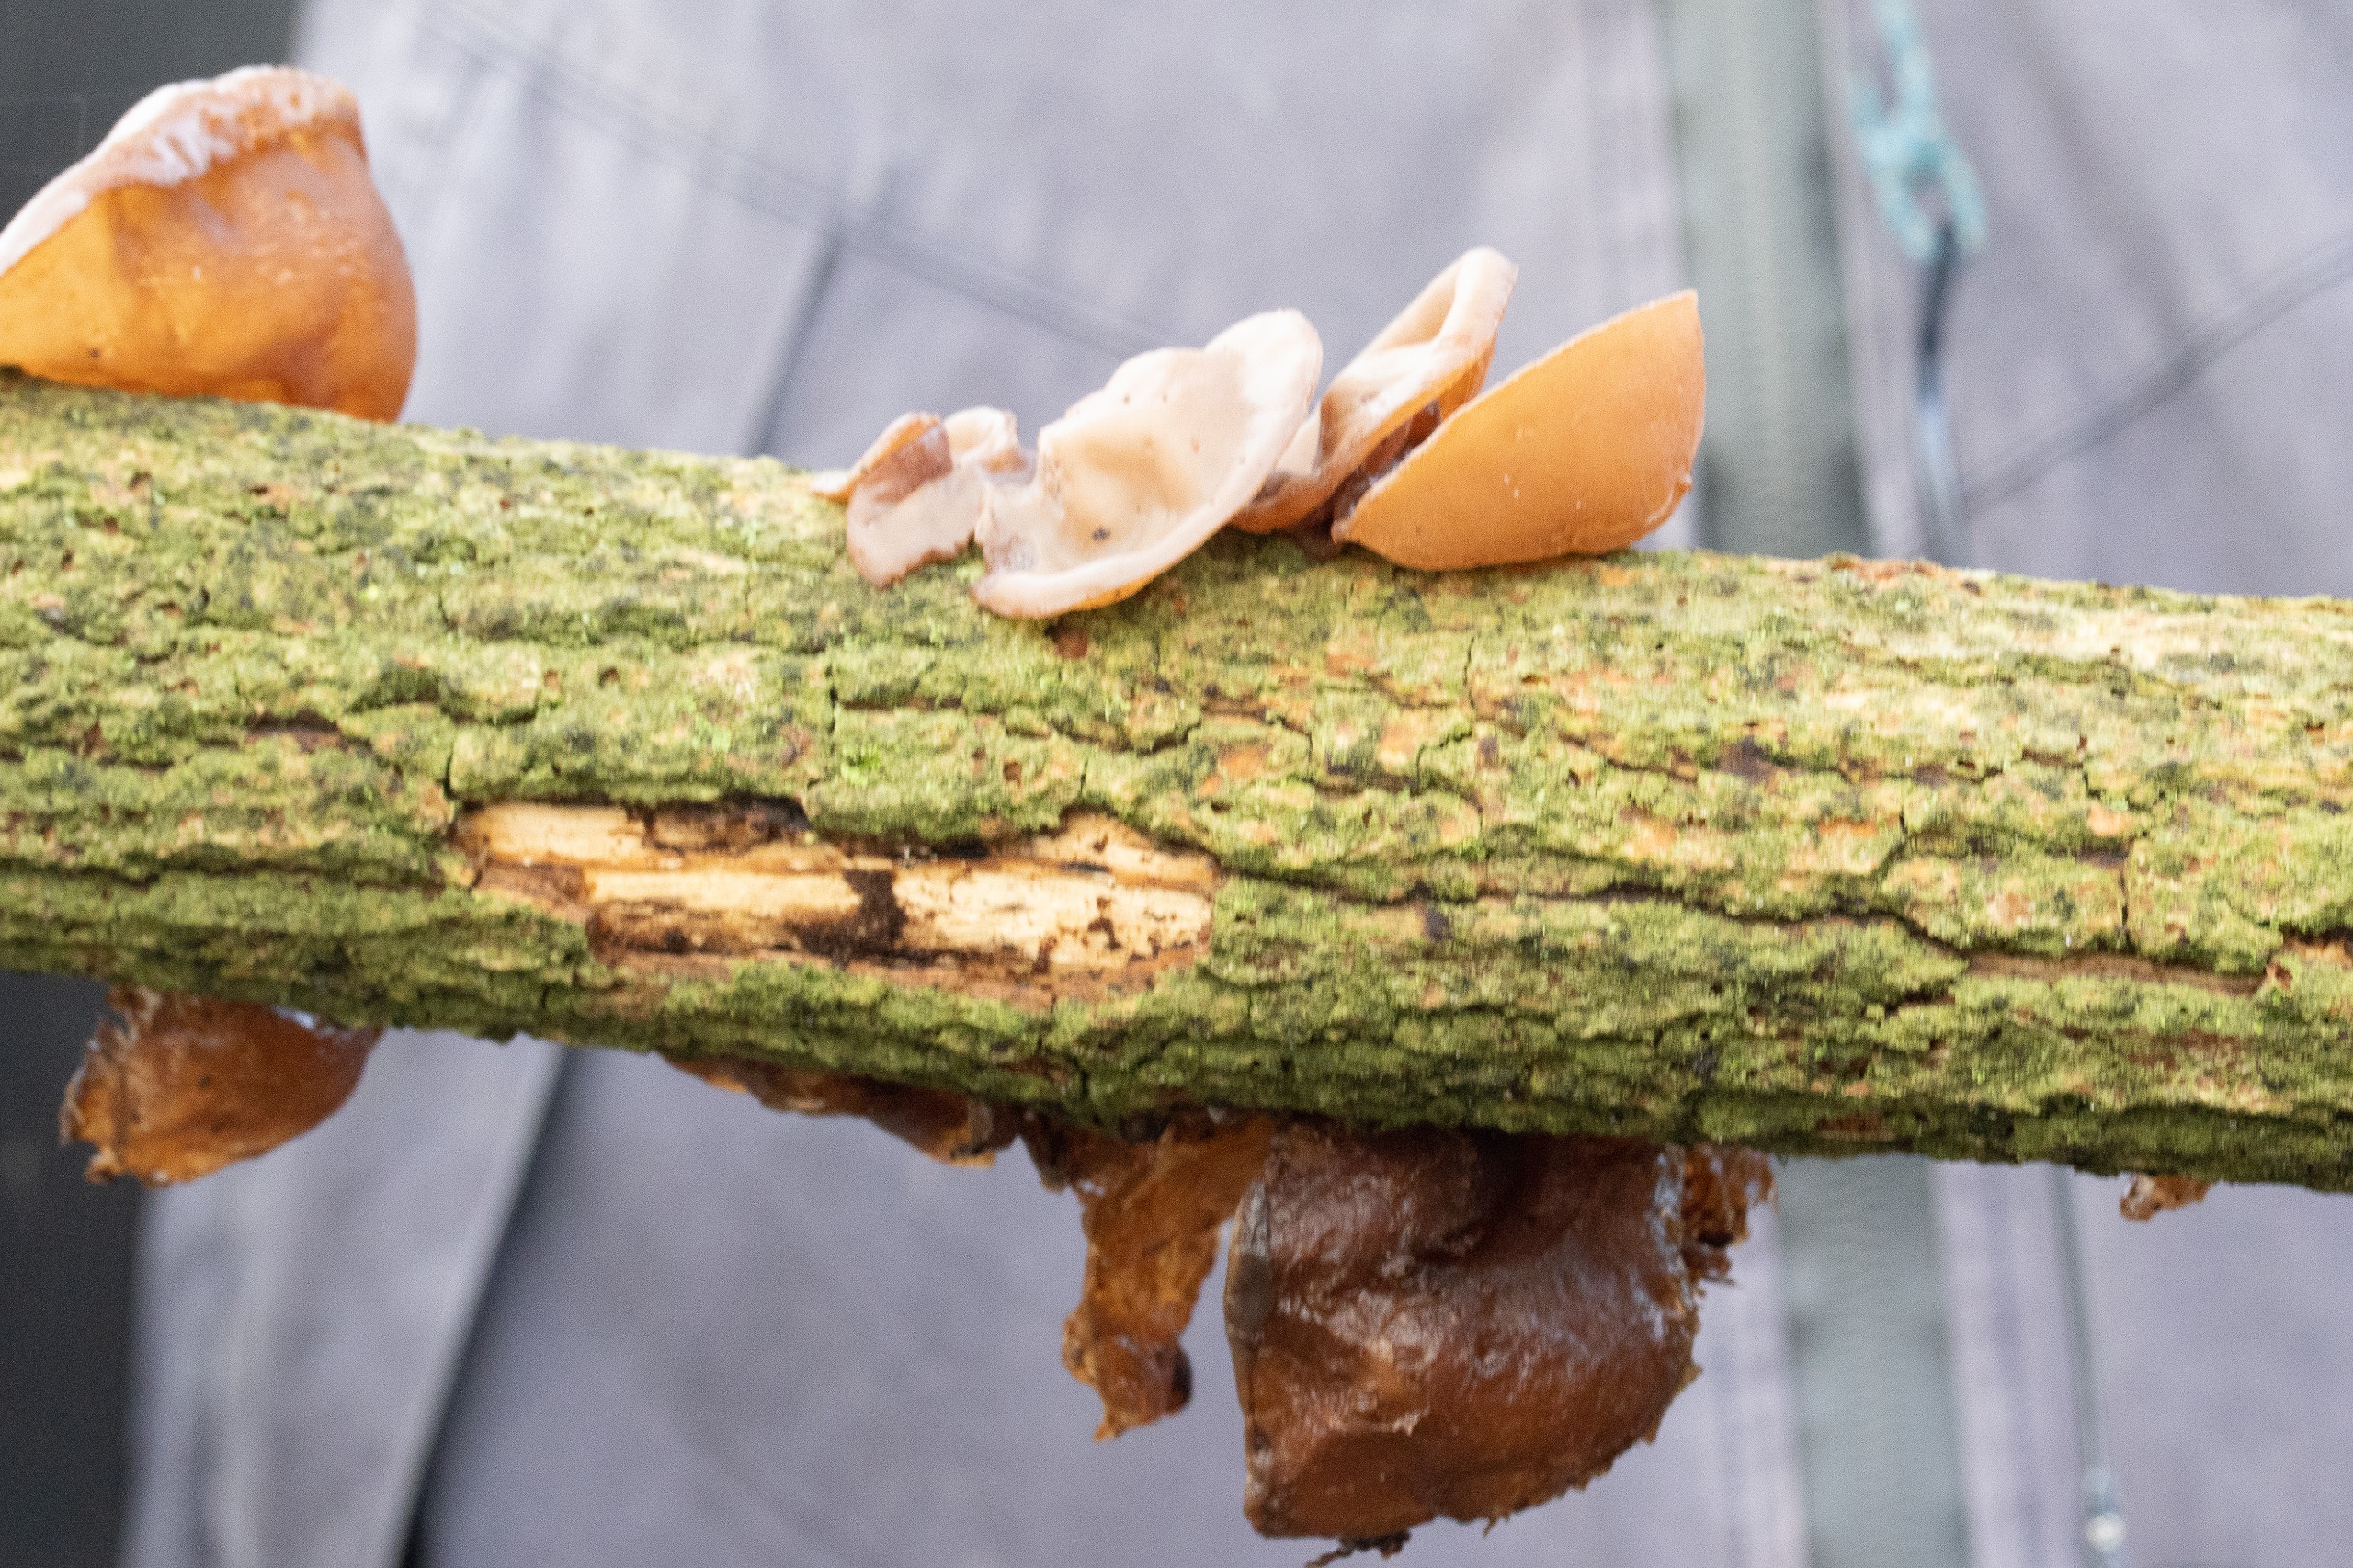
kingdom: Fungi
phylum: Basidiomycota
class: Agaricomycetes
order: Auriculariales
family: Auriculariaceae
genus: Auricularia
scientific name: Auricularia auricula-judae
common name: Almindelig judasøre
